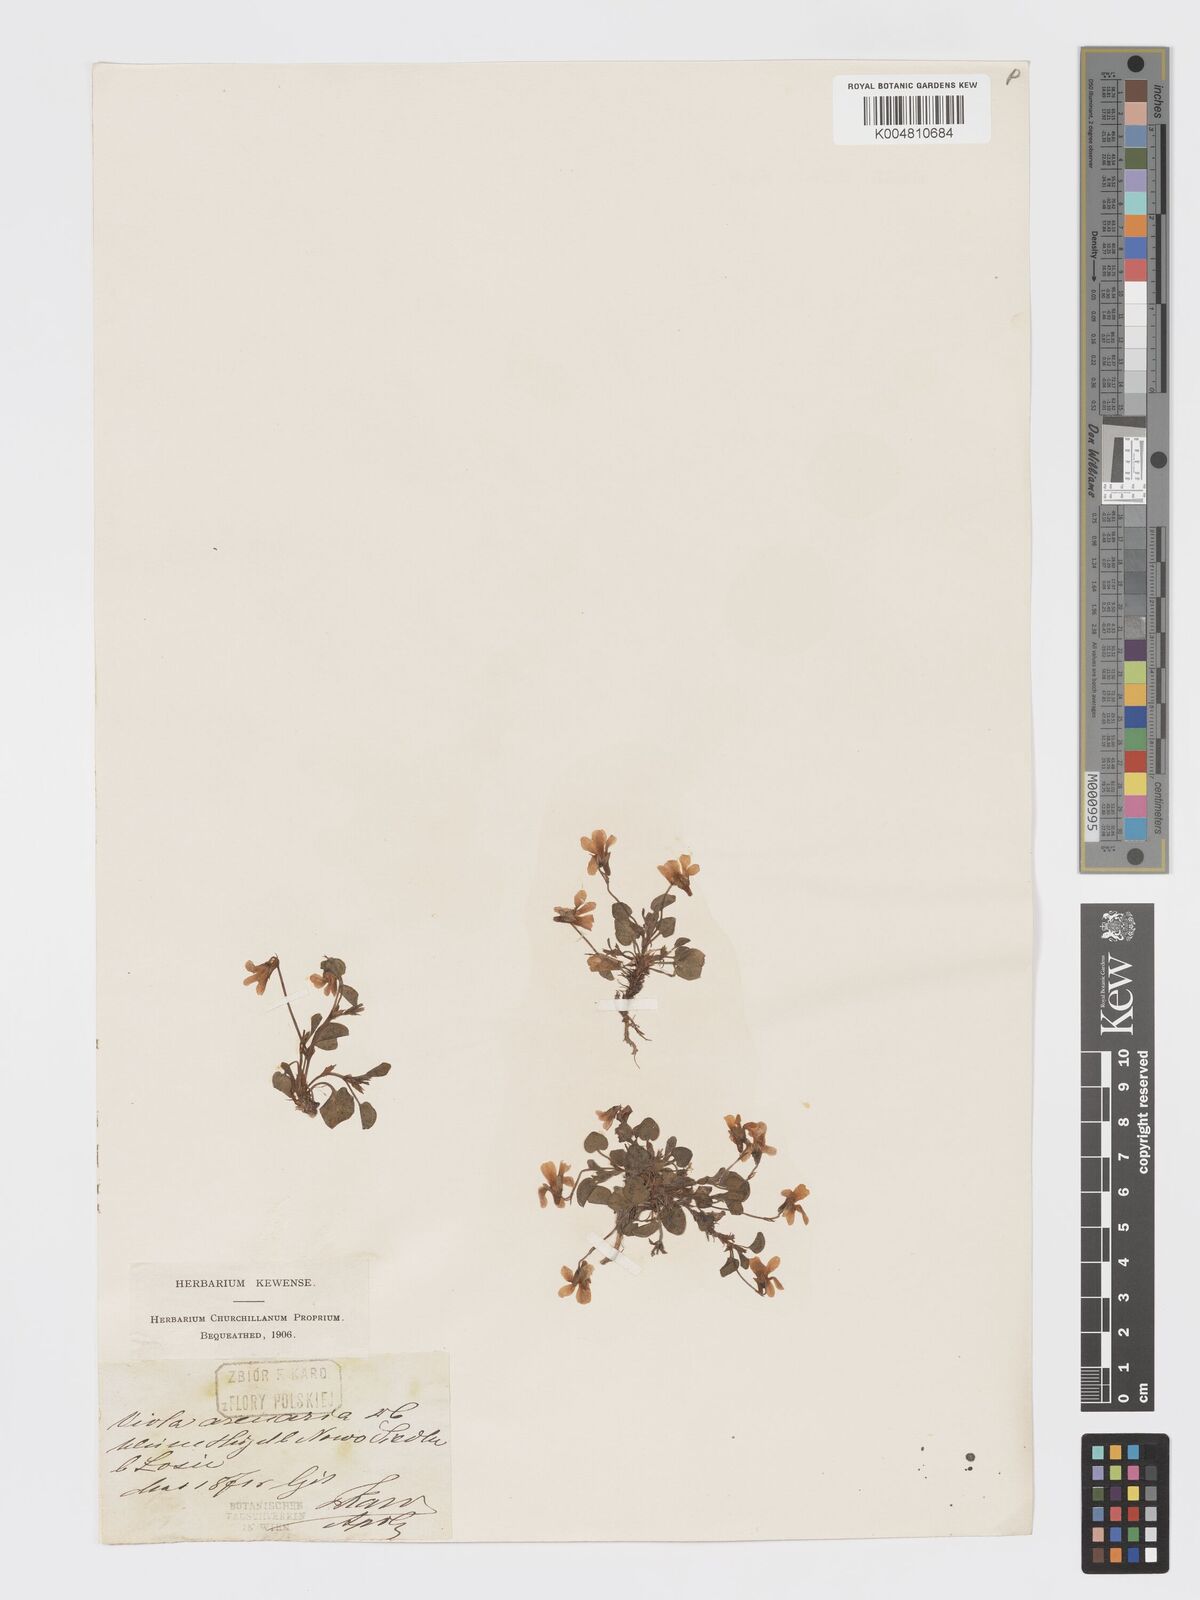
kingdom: Plantae
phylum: Tracheophyta
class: Magnoliopsida
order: Malpighiales
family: Violaceae
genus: Viola
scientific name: Viola rupestris
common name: Teesdale violet
